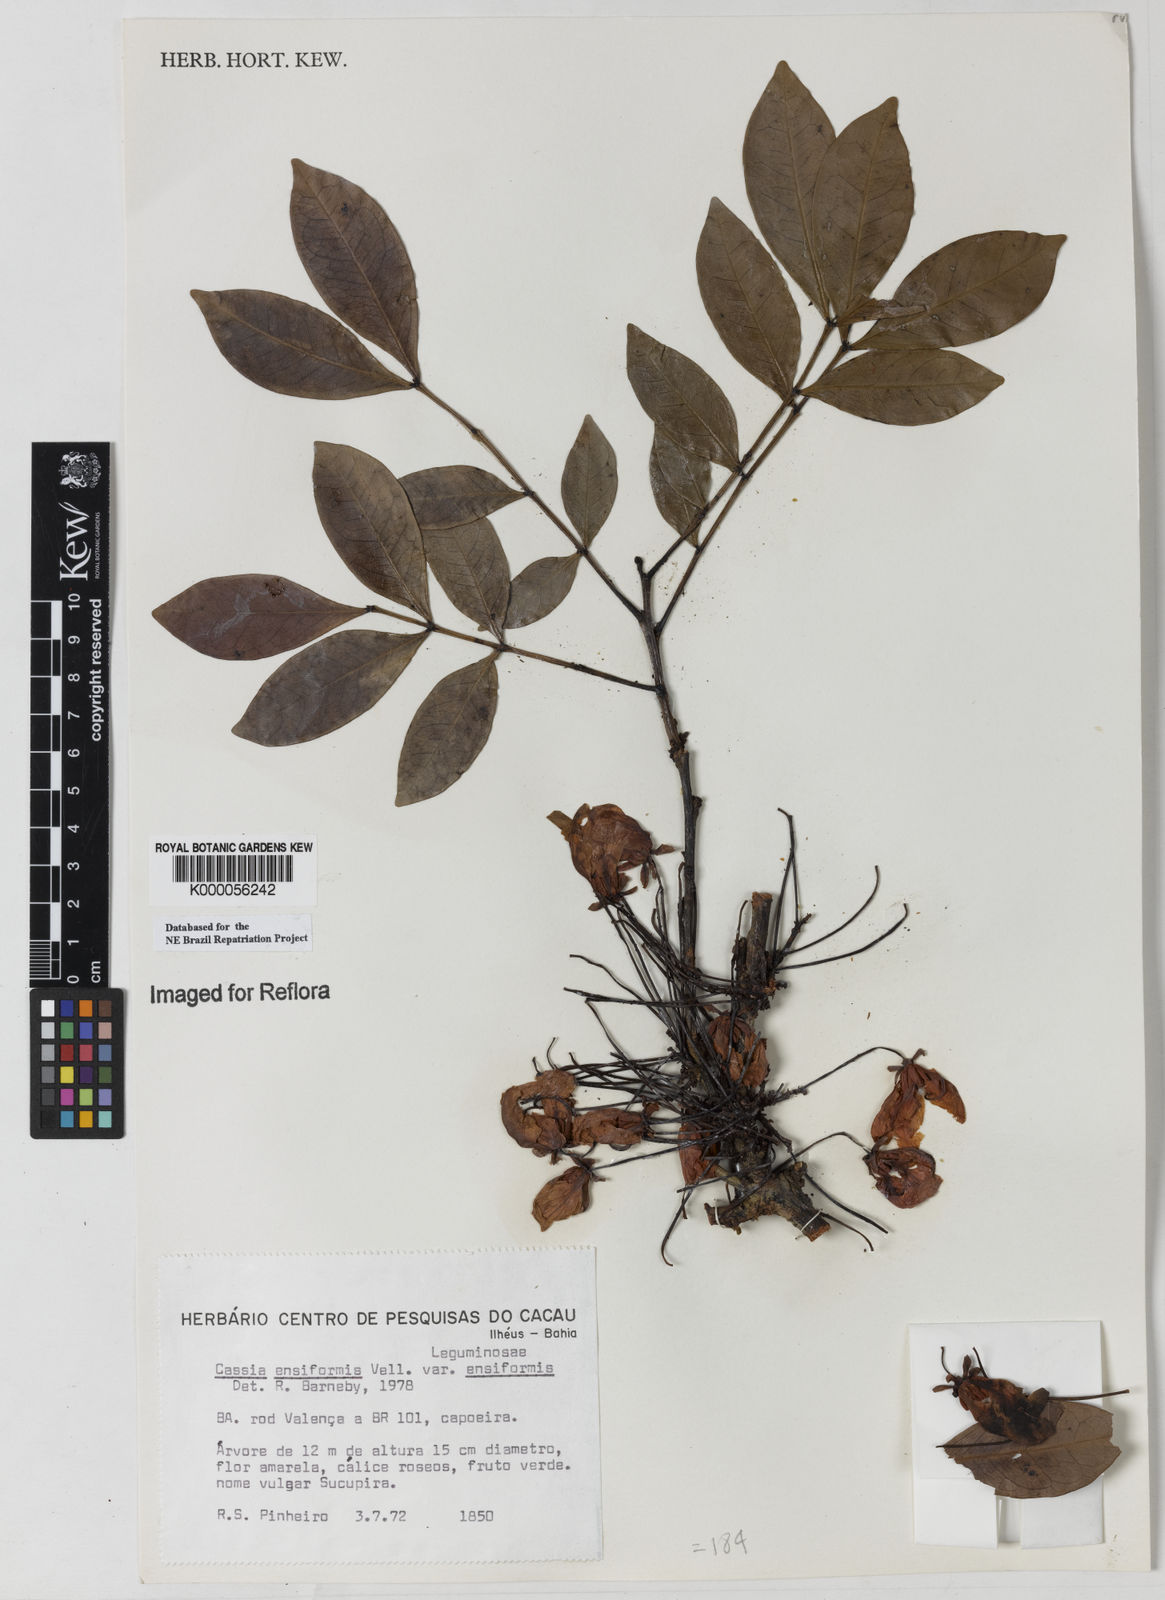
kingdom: Plantae
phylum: Tracheophyta
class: Magnoliopsida
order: Fabales
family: Fabaceae
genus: Chamaecrista
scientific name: Chamaecrista ensiformis
